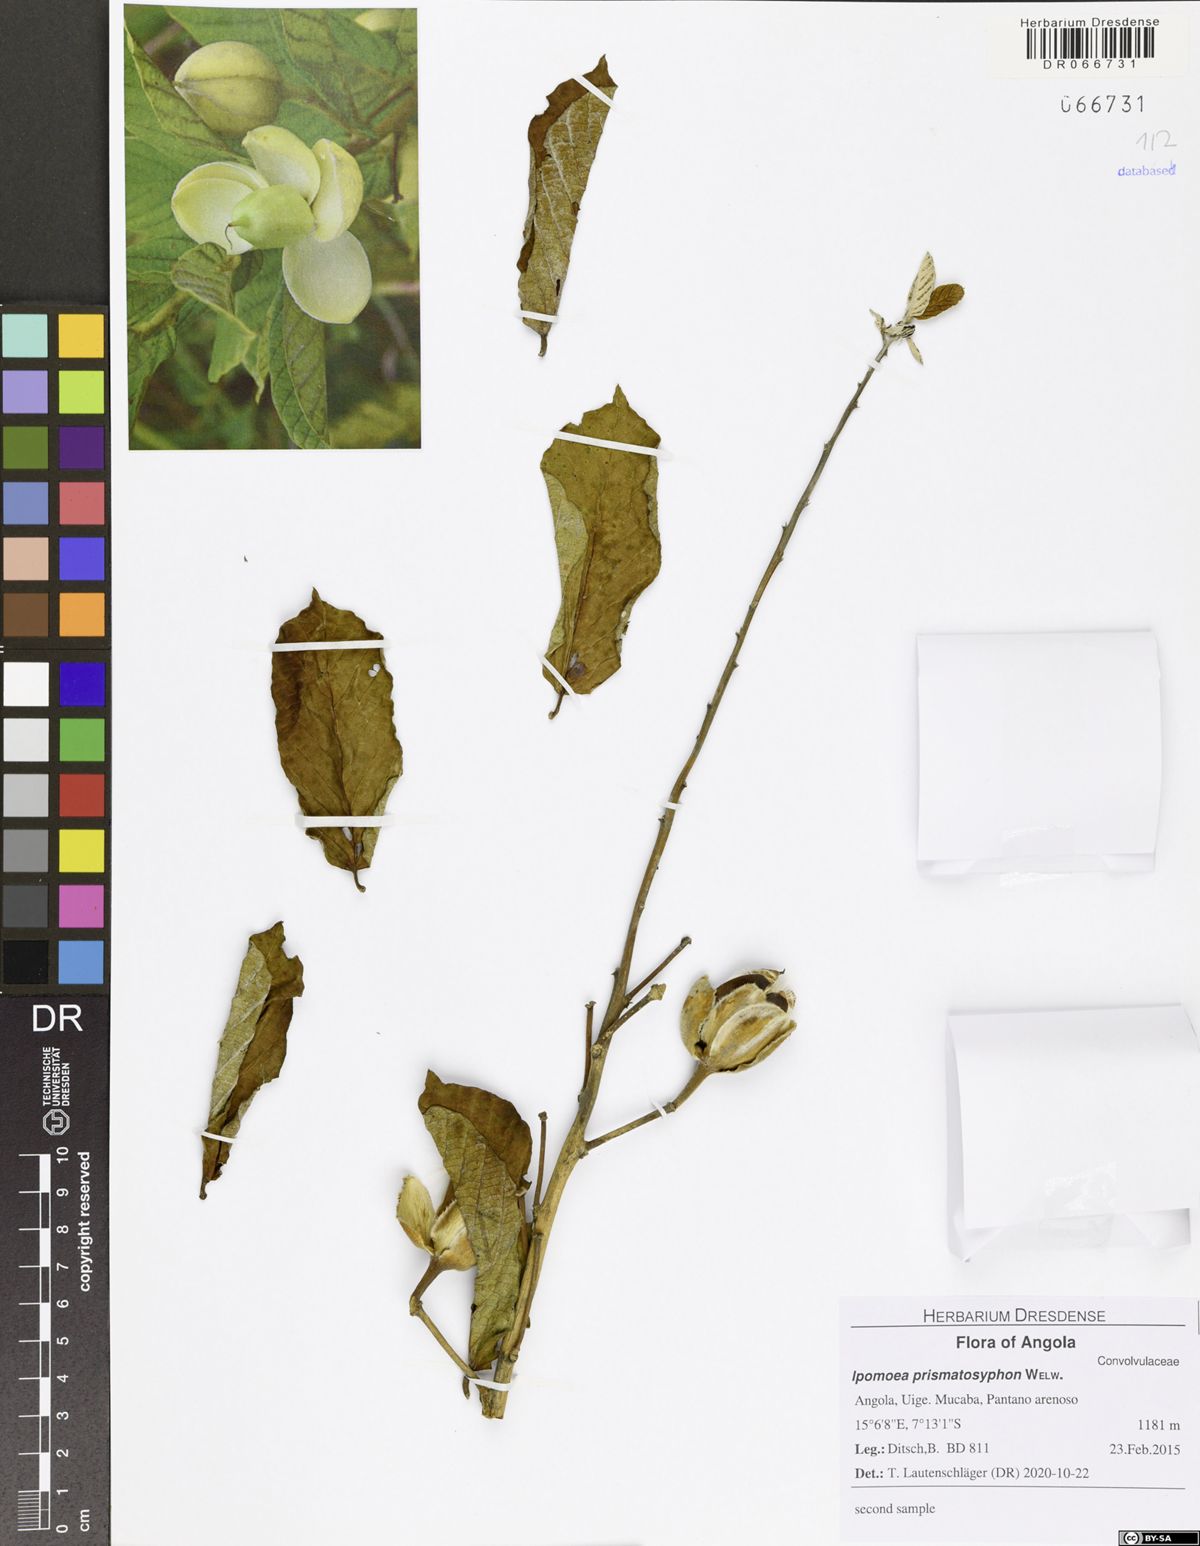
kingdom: Plantae
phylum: Tracheophyta
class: Magnoliopsida
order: Solanales
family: Convolvulaceae
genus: Ipomoea
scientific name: Ipomoea prismatosyphon
